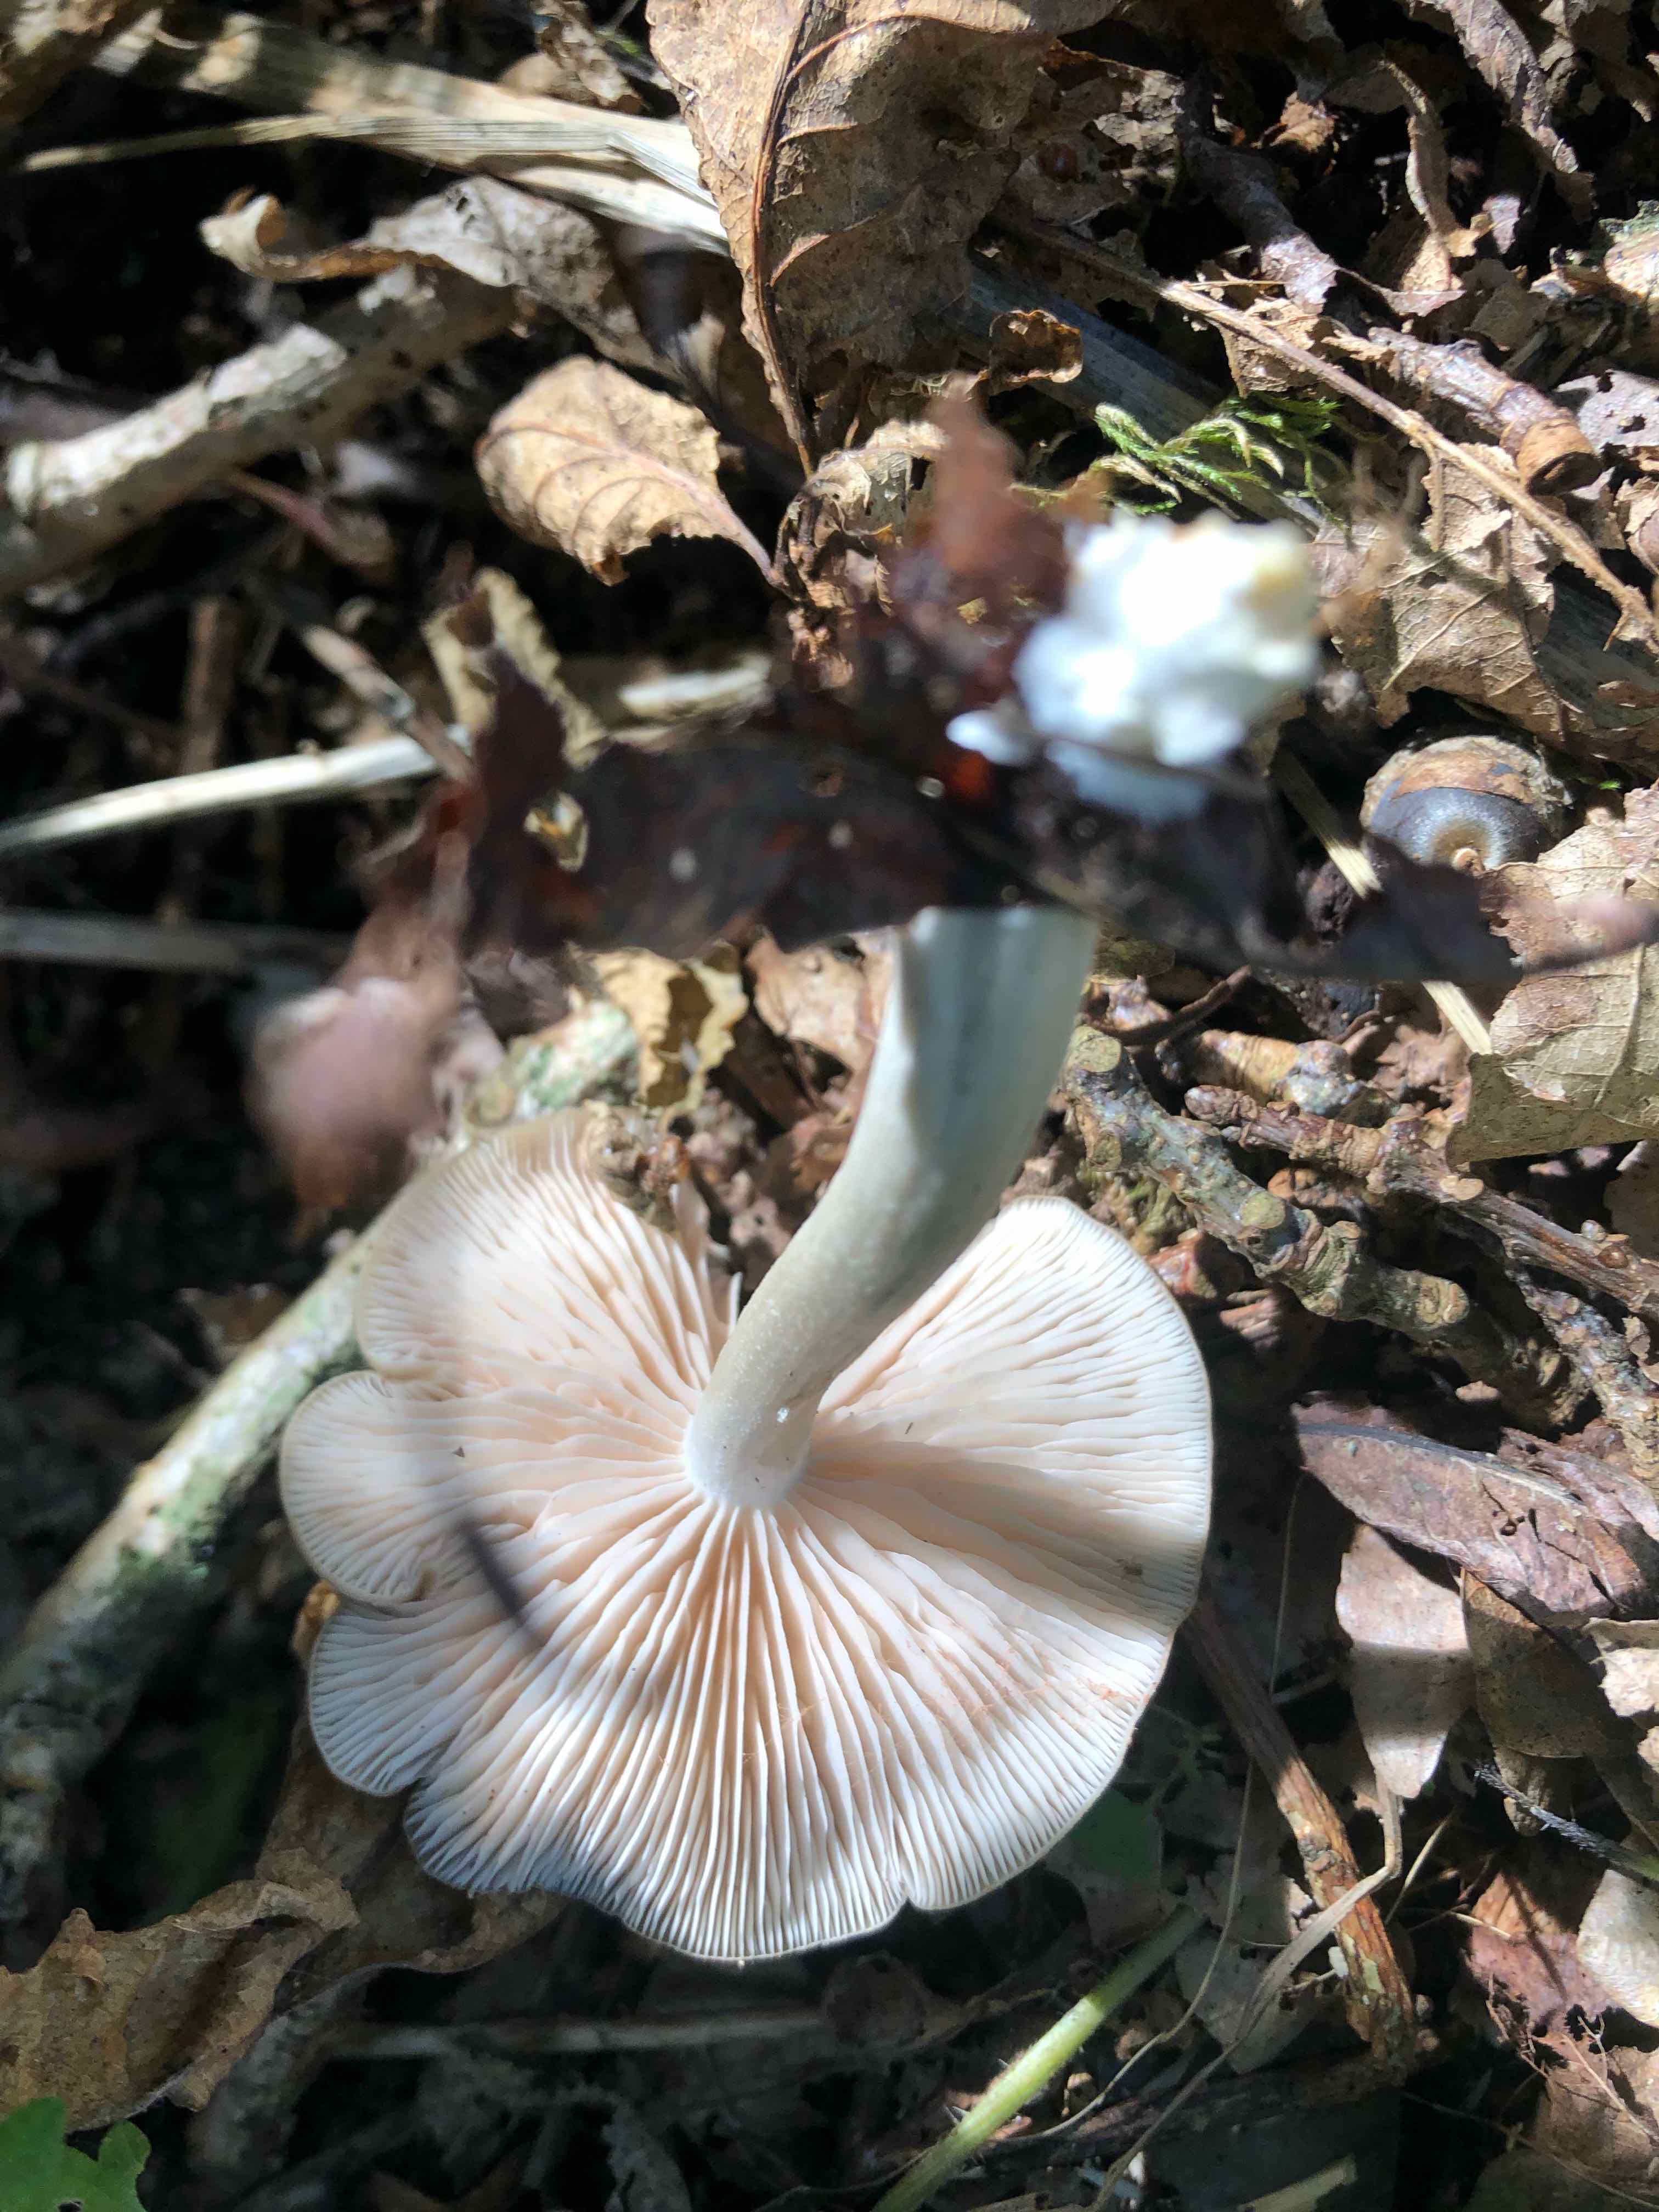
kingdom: Fungi
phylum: Basidiomycota
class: Agaricomycetes
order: Agaricales
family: Entolomataceae
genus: Entoloma
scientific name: Entoloma
